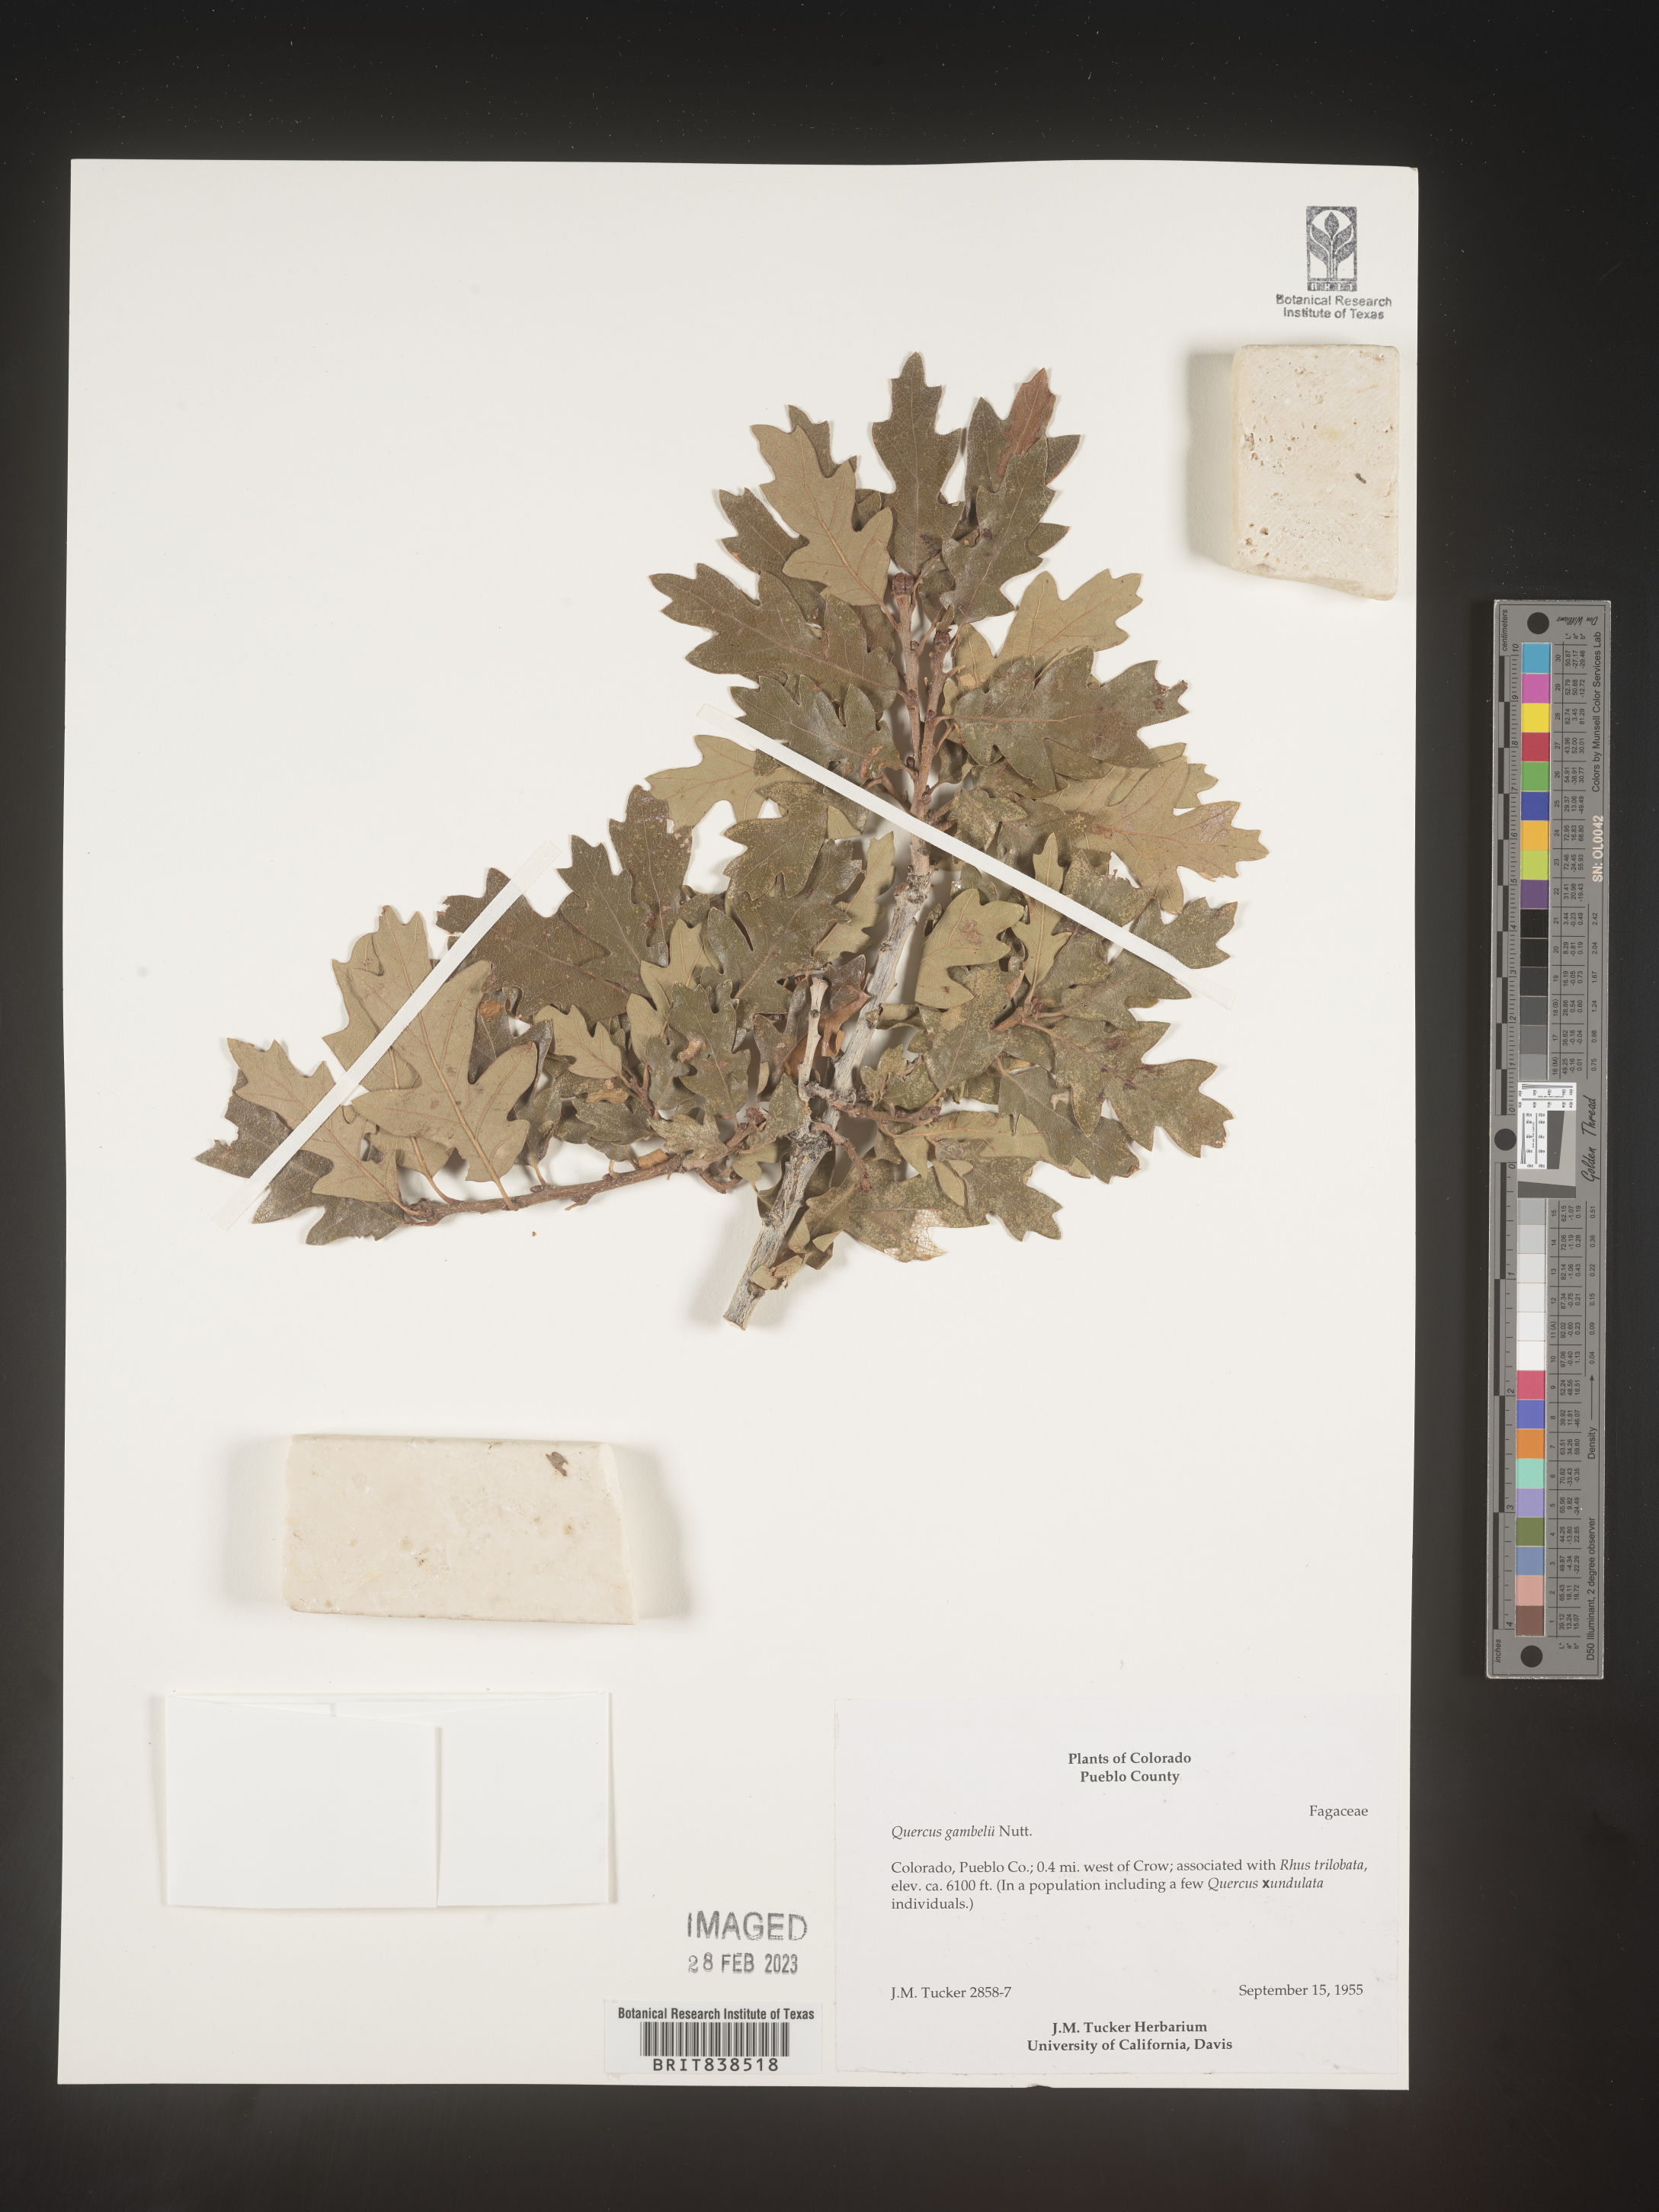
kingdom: Plantae
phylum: Tracheophyta
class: Magnoliopsida
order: Fagales
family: Fagaceae
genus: Quercus
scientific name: Quercus gambelii
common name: Gambel oak
